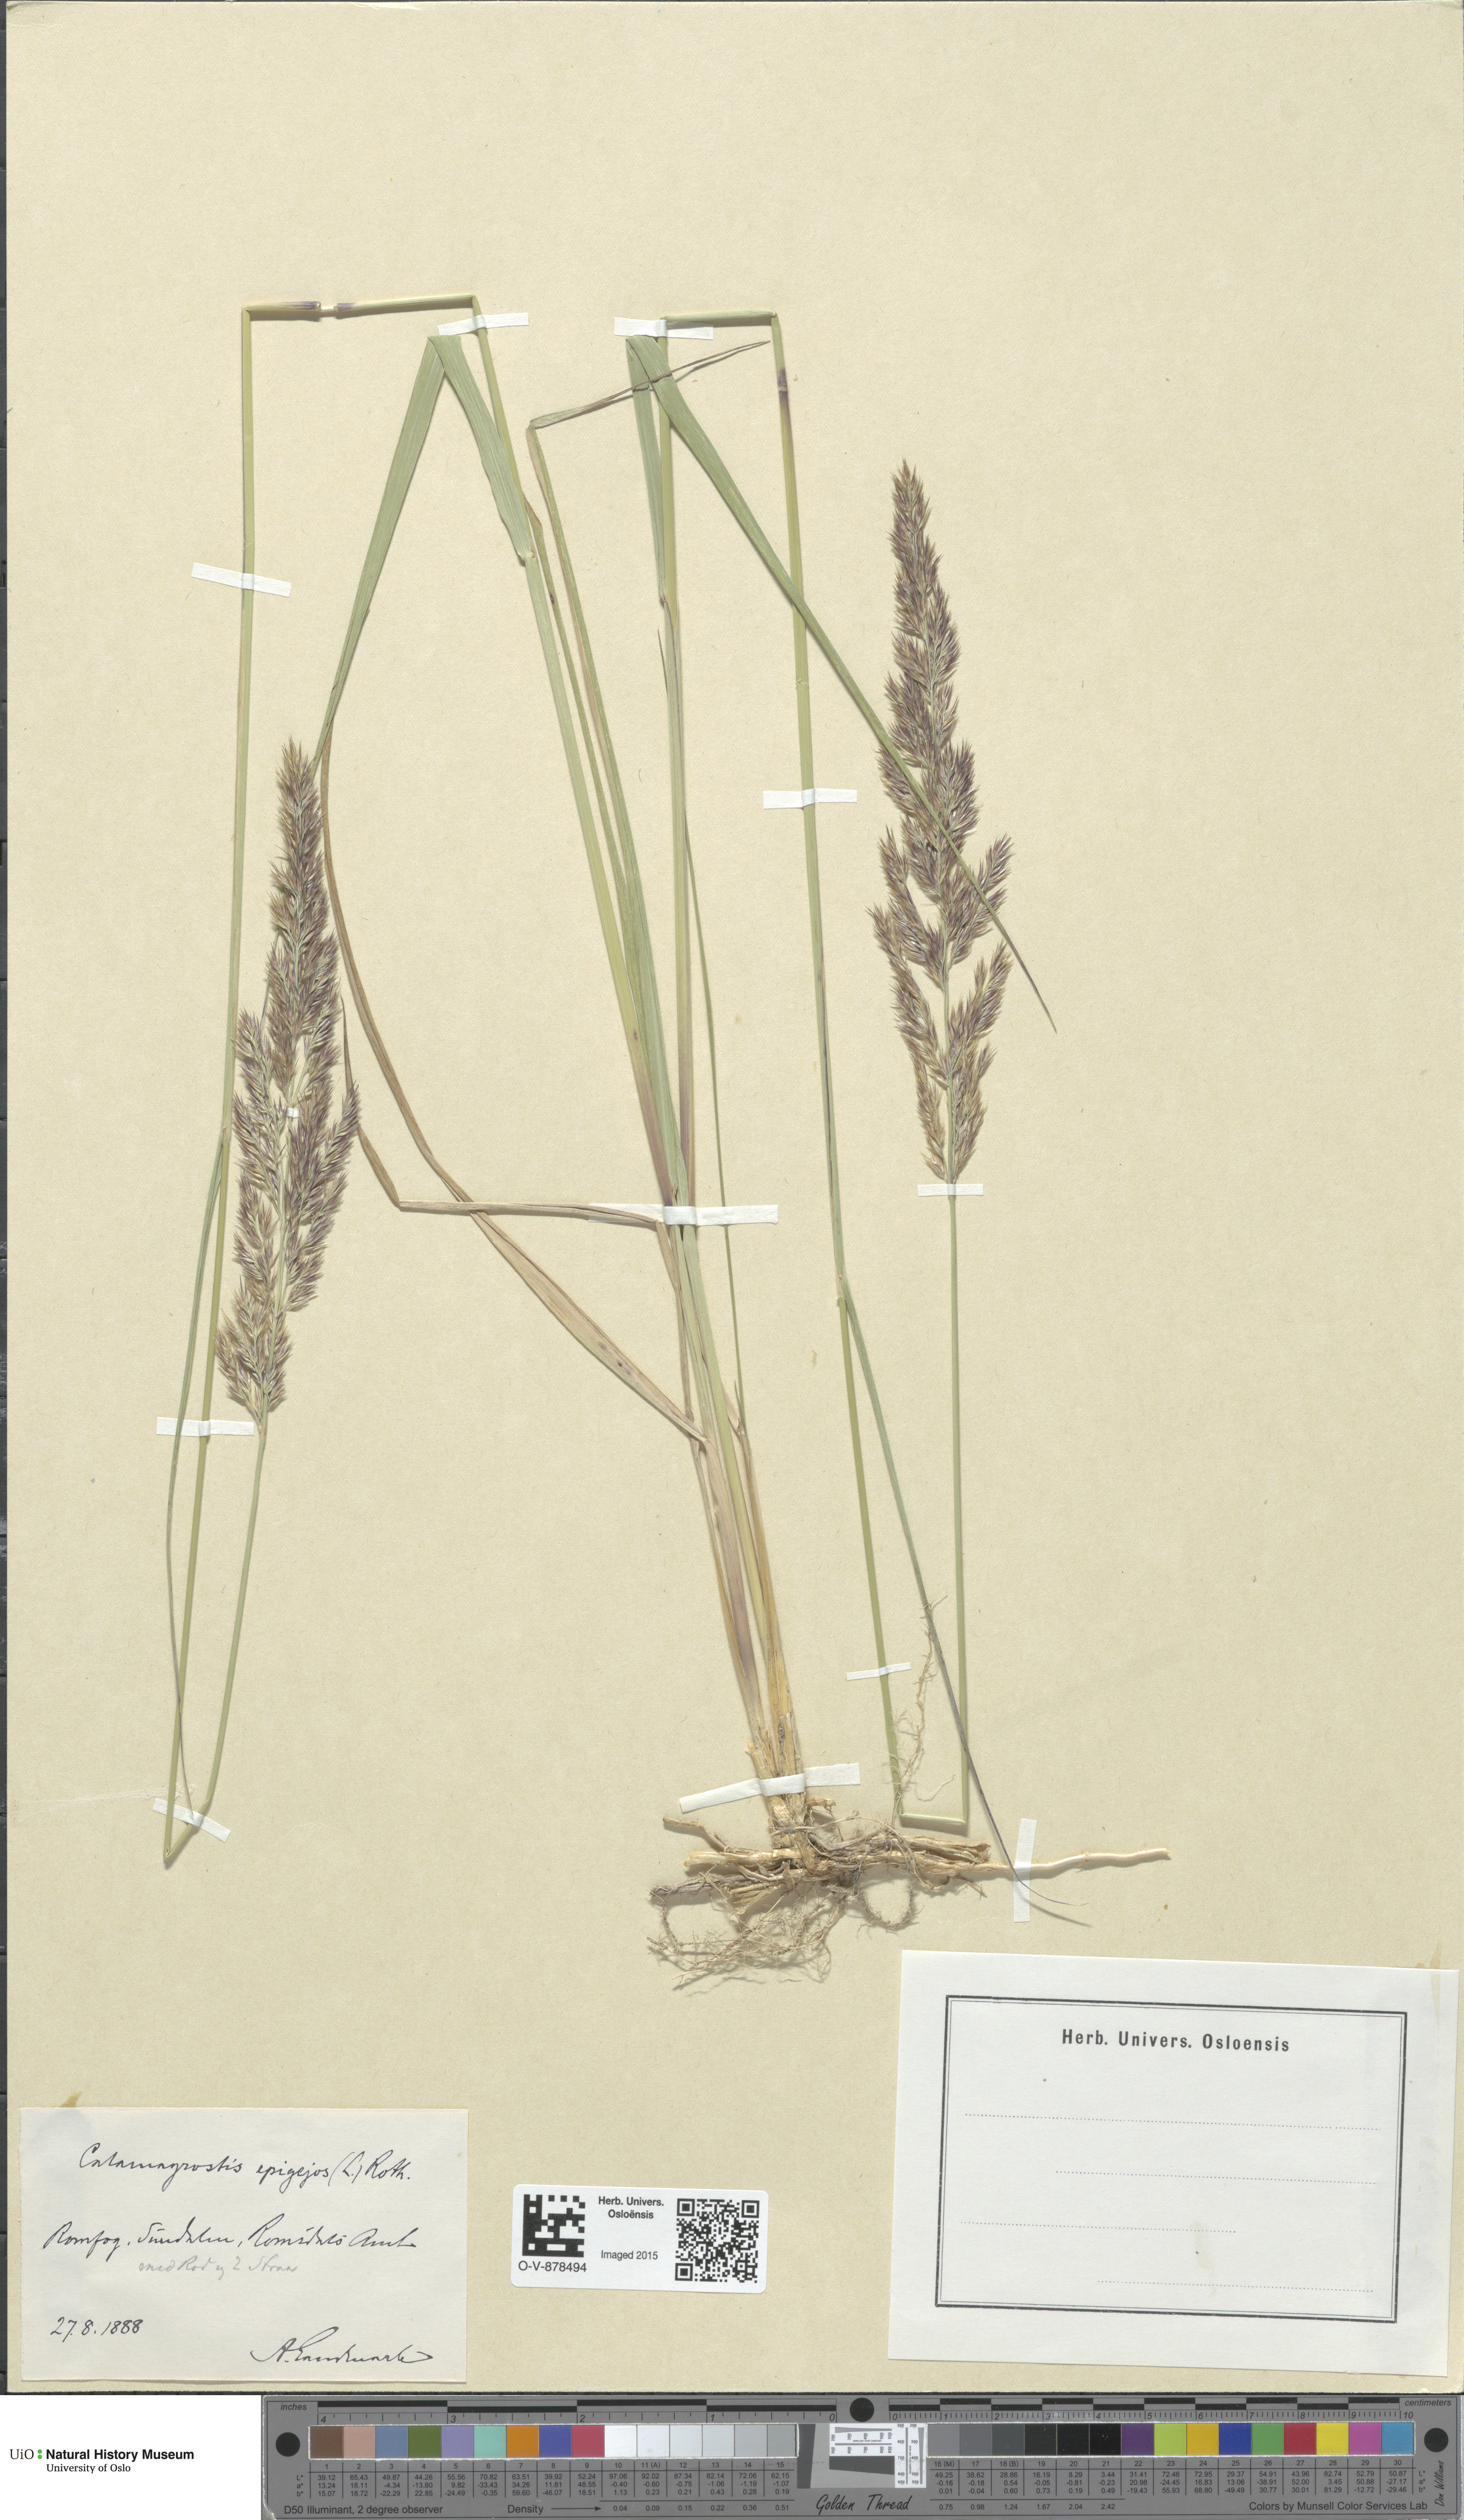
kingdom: Plantae
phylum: Tracheophyta
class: Liliopsida
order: Poales
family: Poaceae
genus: Calamagrostis
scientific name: Calamagrostis epigejos
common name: Wood small-reed
